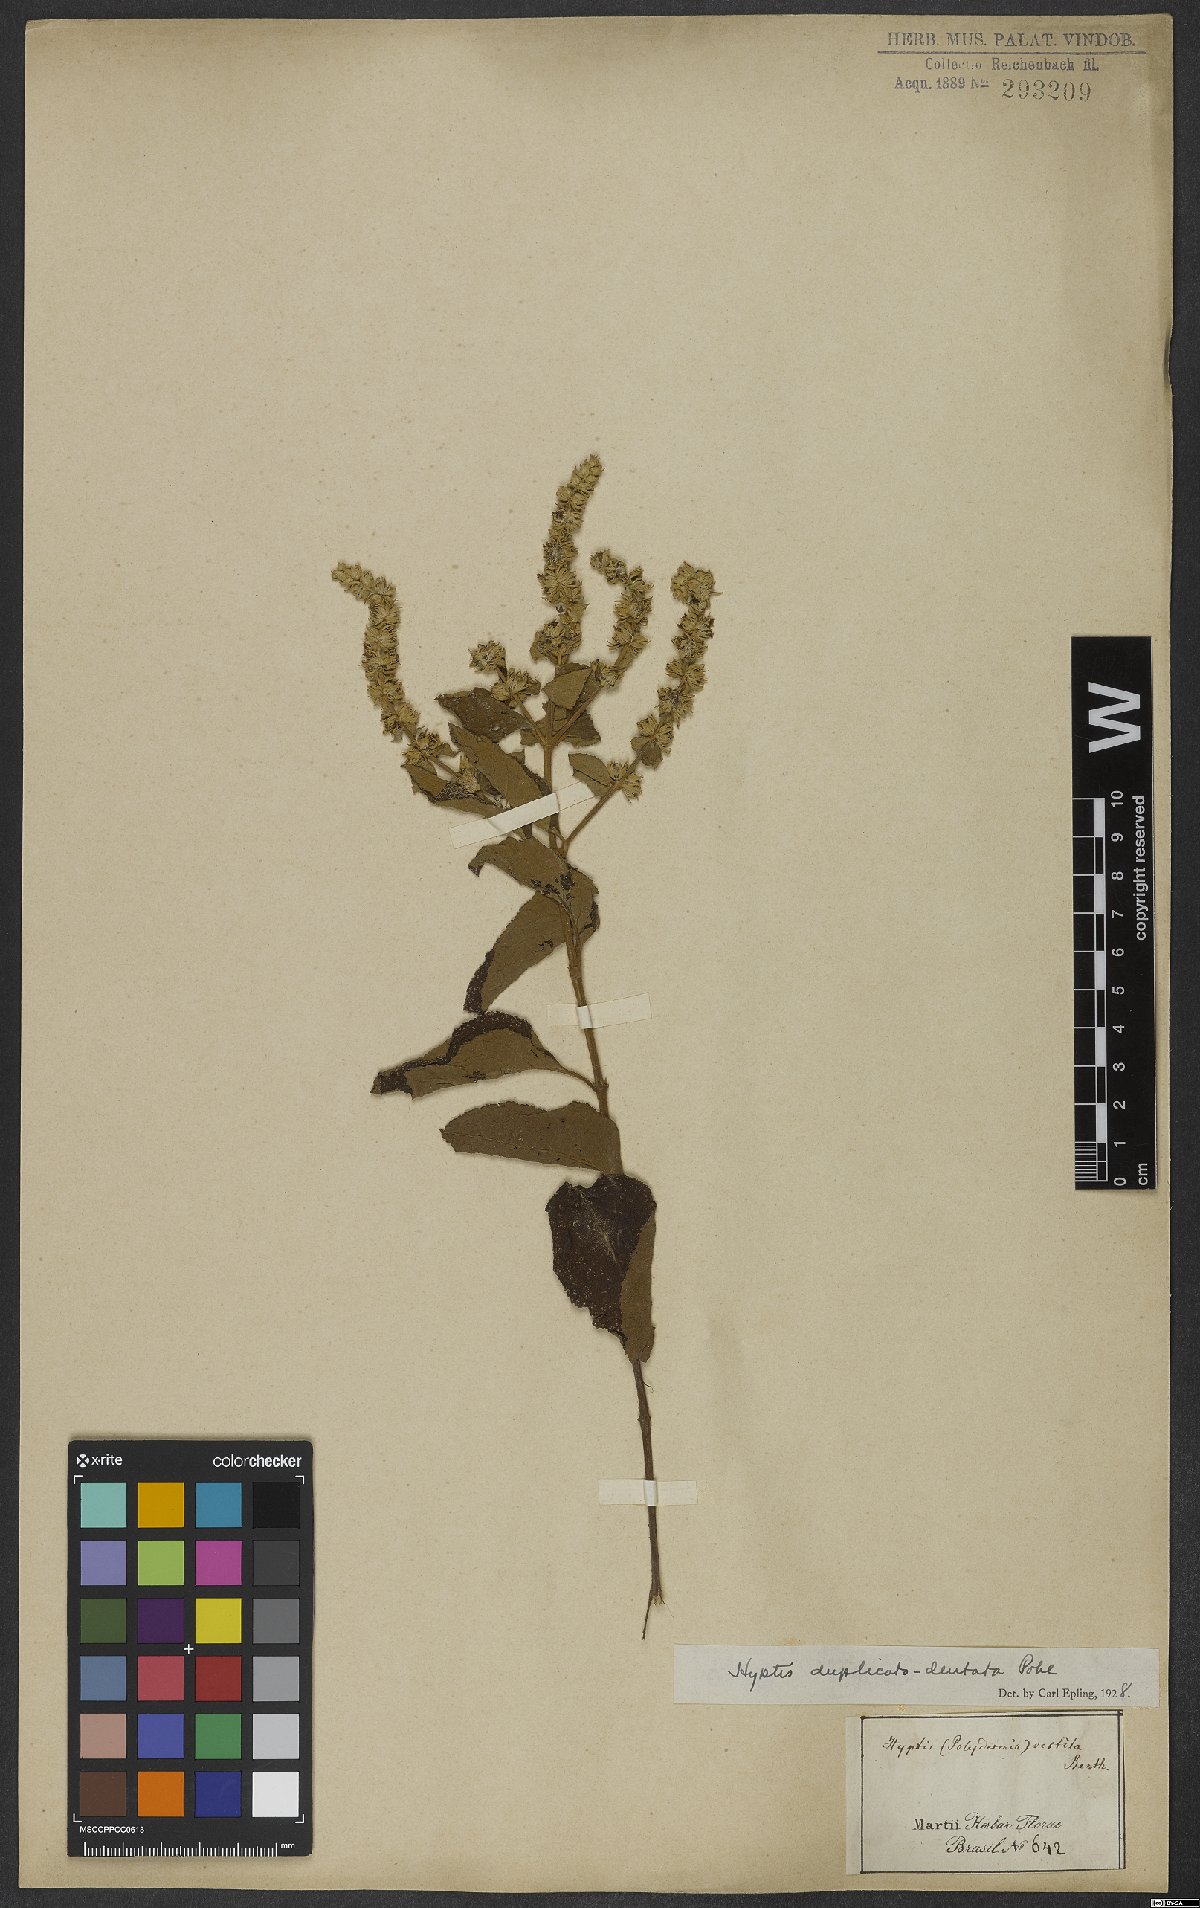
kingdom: Plantae
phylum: Tracheophyta
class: Magnoliopsida
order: Lamiales
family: Lamiaceae
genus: Cantinoa
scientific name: Cantinoa duplicatodentata
